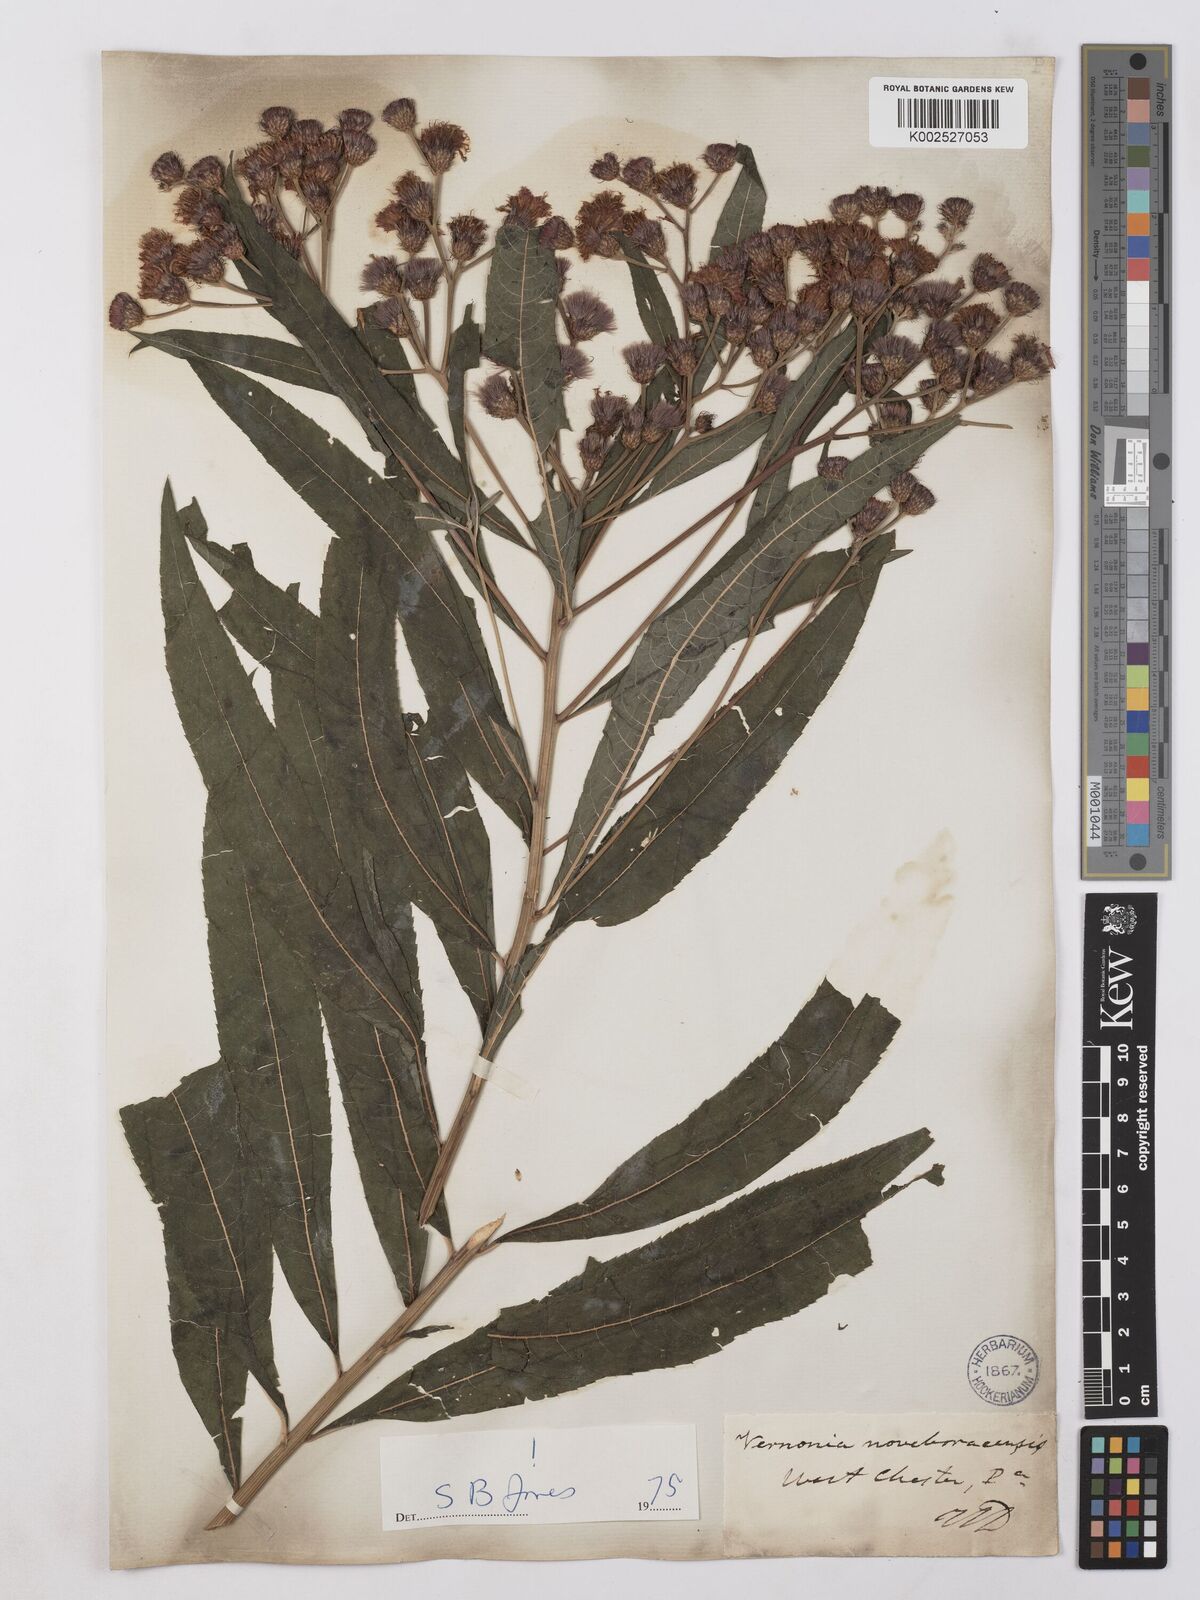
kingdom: Plantae
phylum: Tracheophyta
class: Magnoliopsida
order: Asterales
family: Asteraceae
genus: Vernonia
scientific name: Vernonia noveboracensis
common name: New york ironweed
